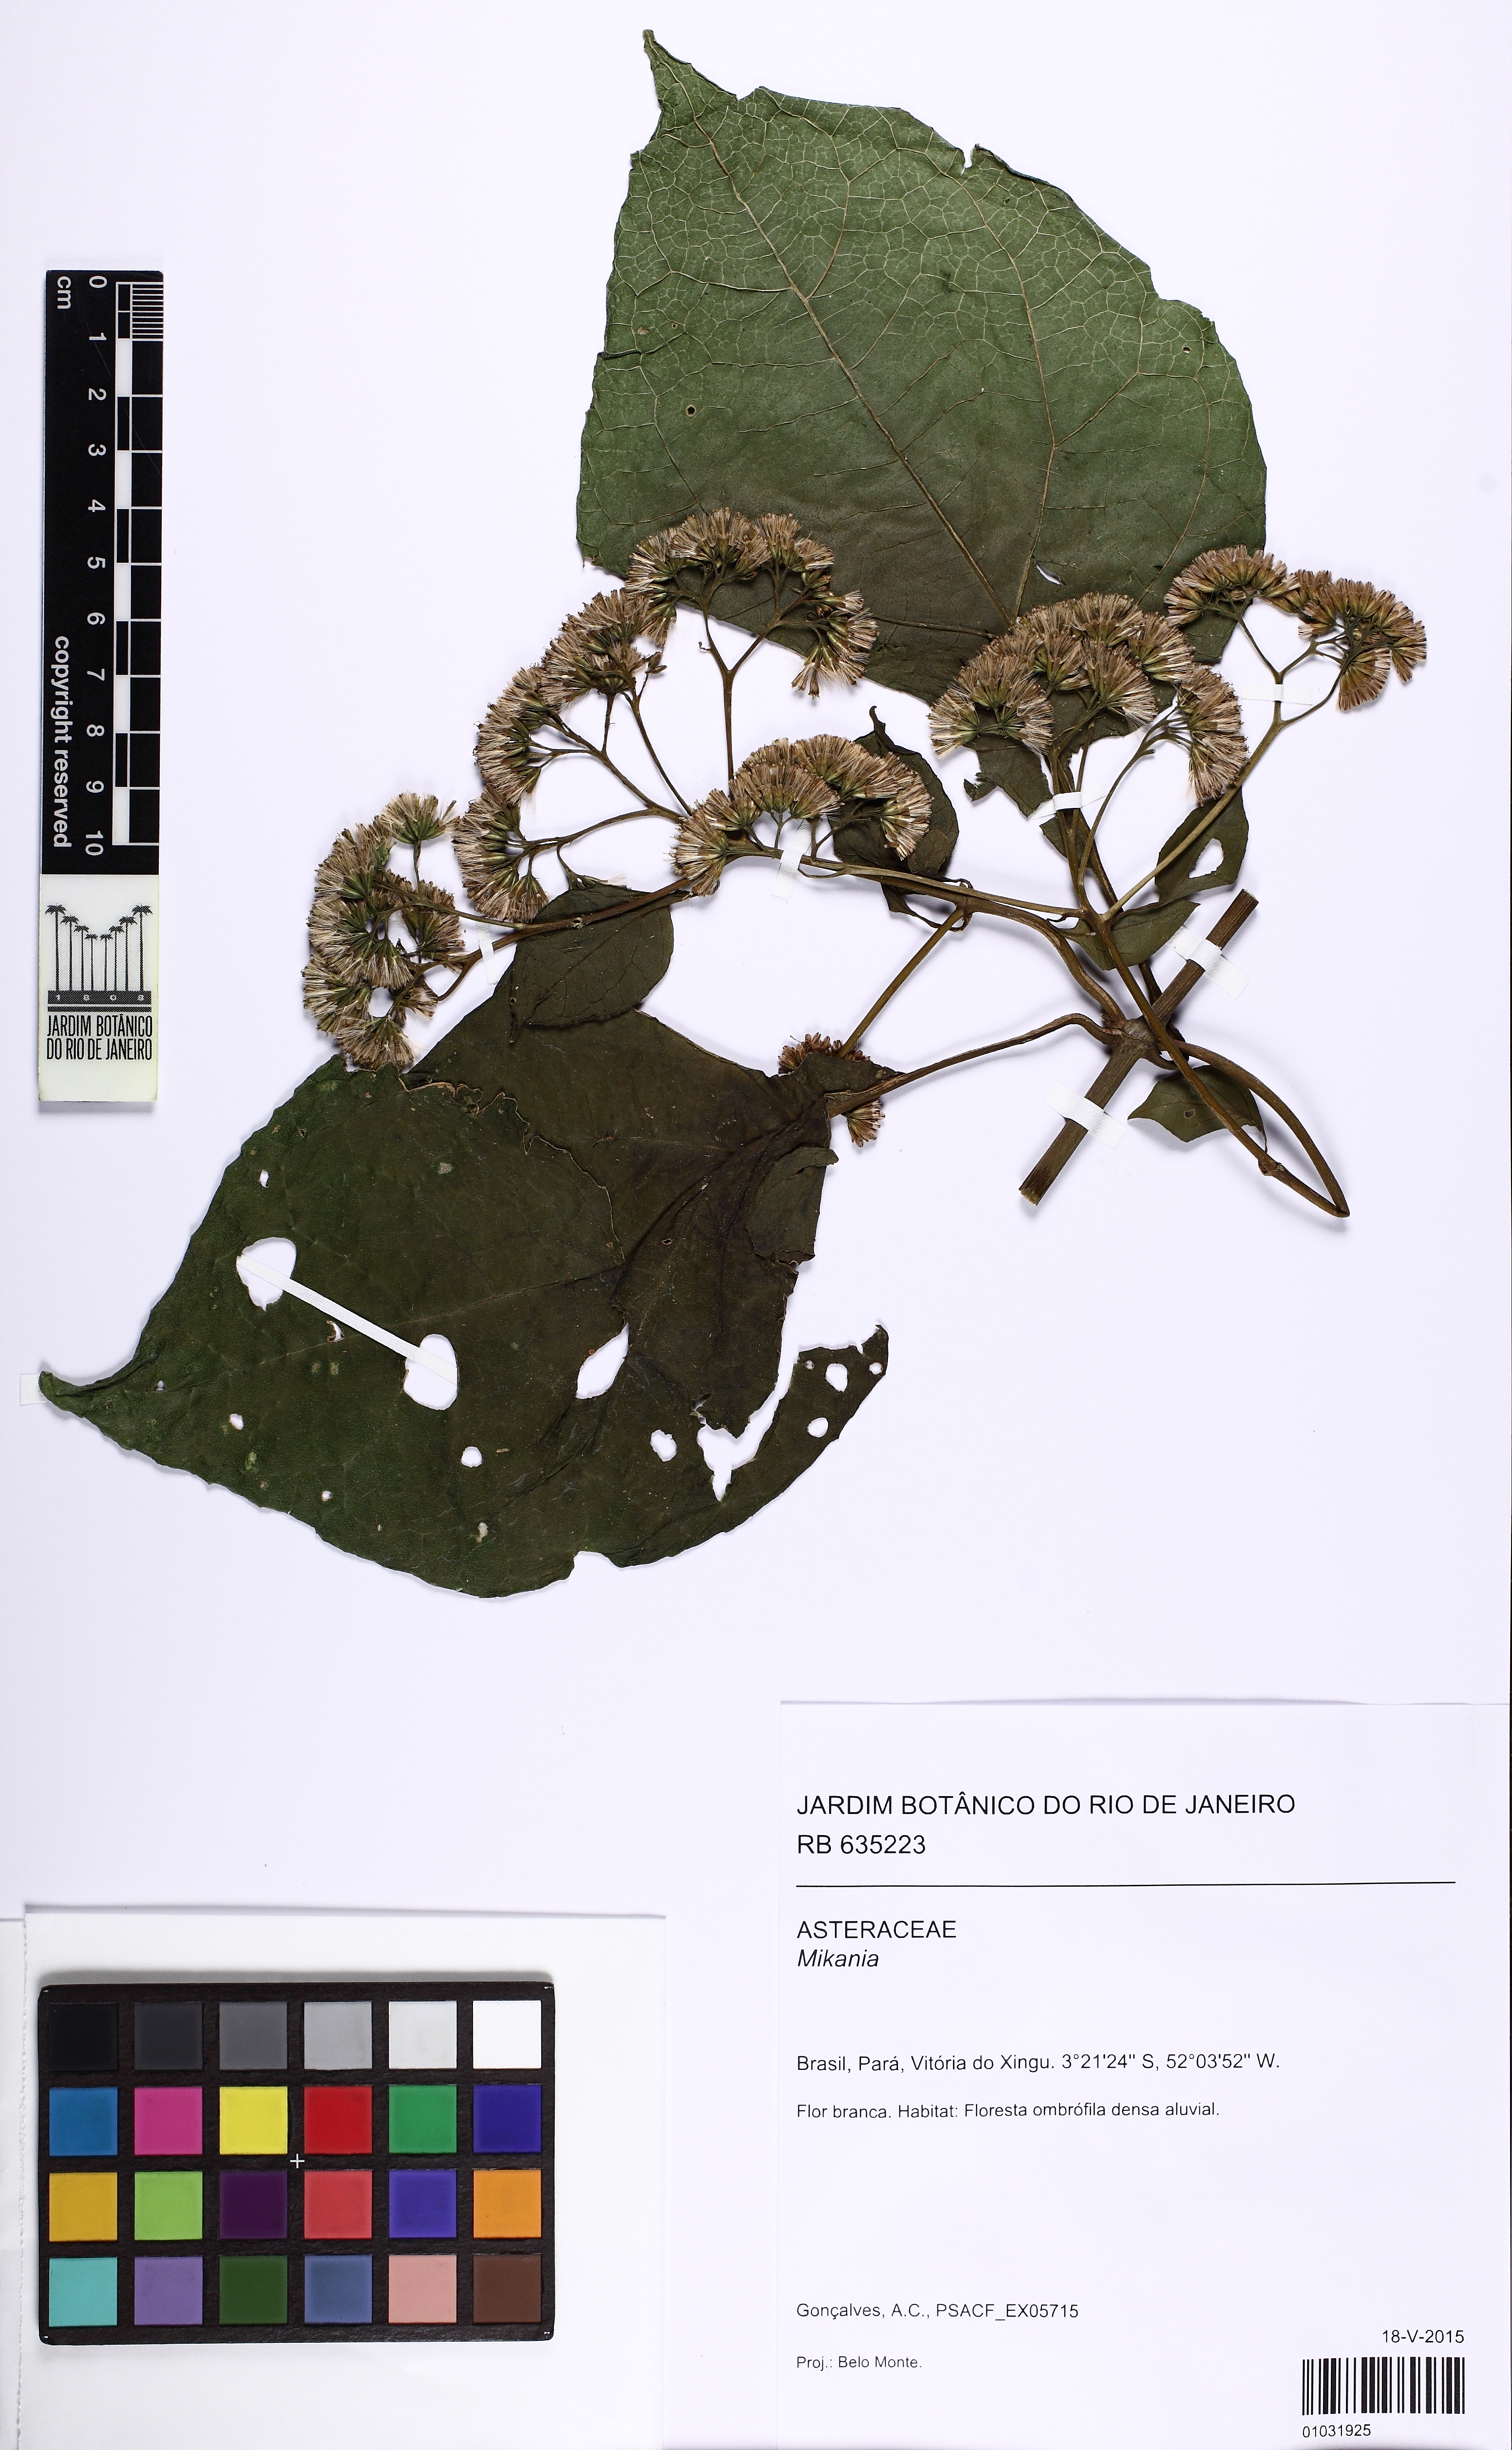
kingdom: Plantae
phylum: Tracheophyta
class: Magnoliopsida
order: Asterales
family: Asteraceae
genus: Mikania
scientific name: Mikania
